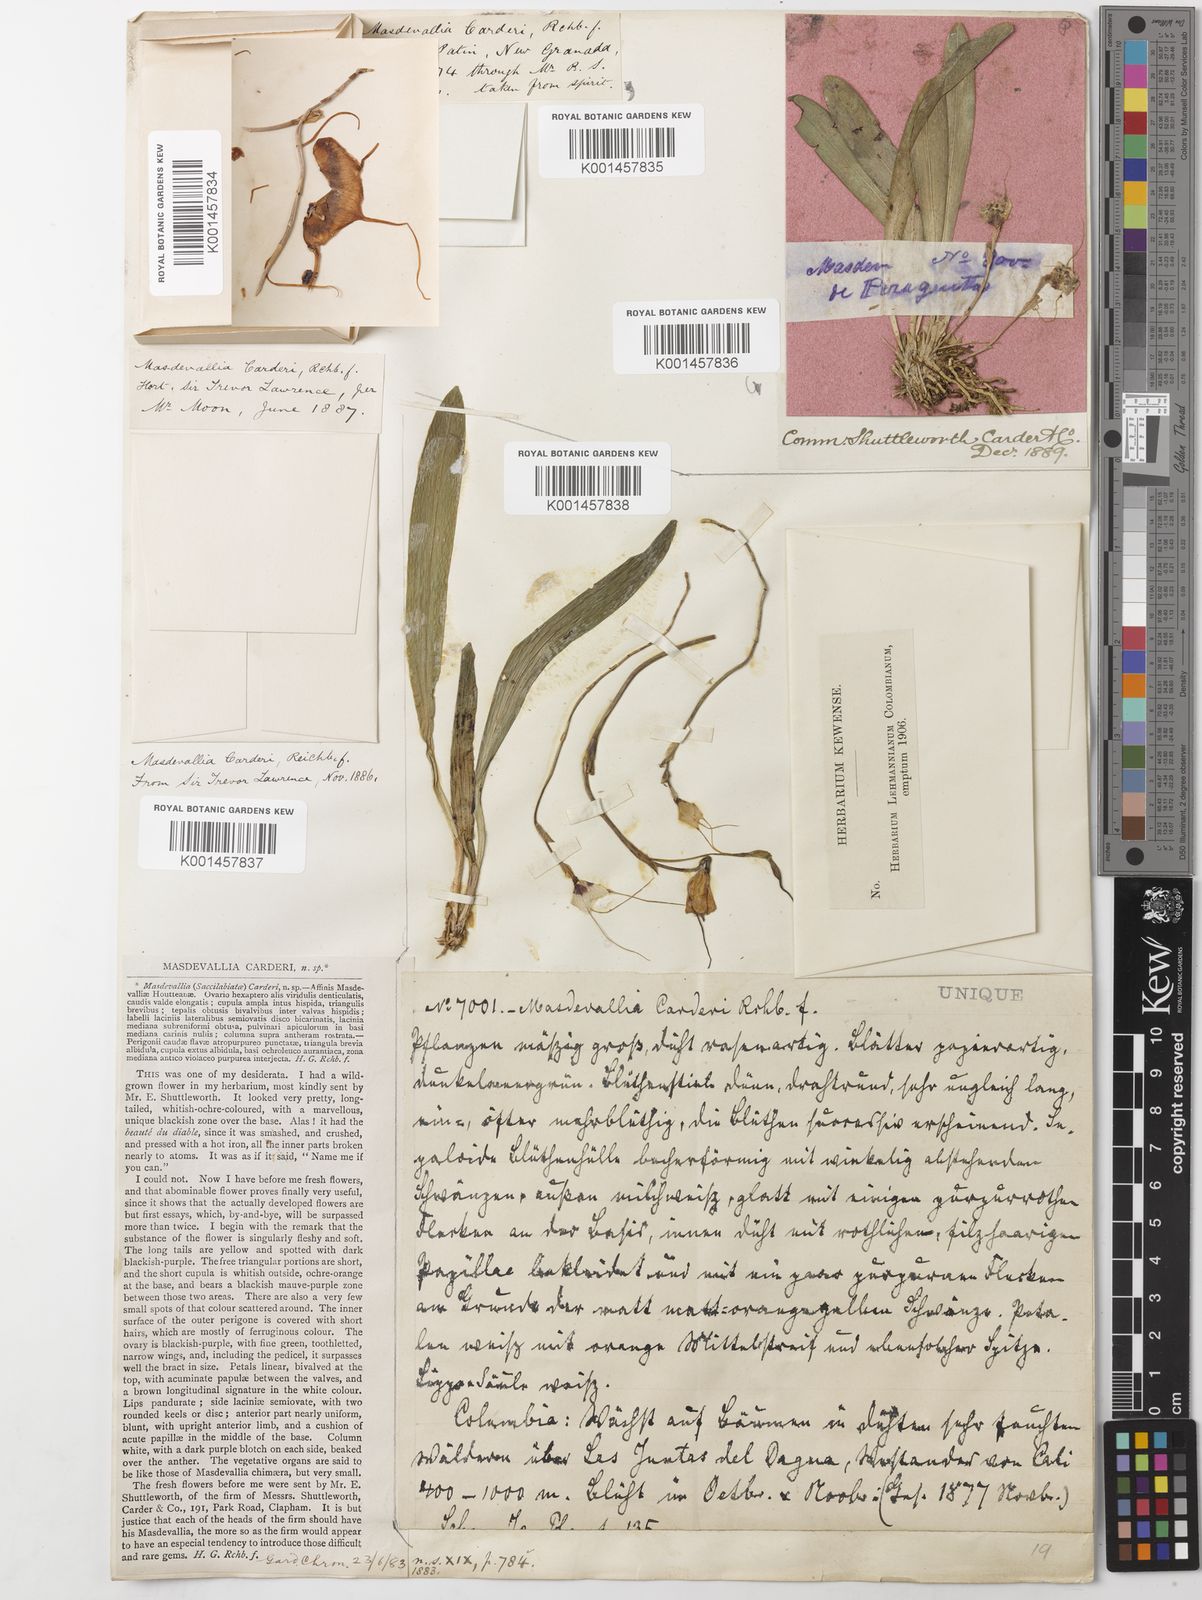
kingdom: Plantae
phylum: Tracheophyta
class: Liliopsida
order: Asparagales
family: Orchidaceae
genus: Dracula
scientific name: Dracula inaequalis
